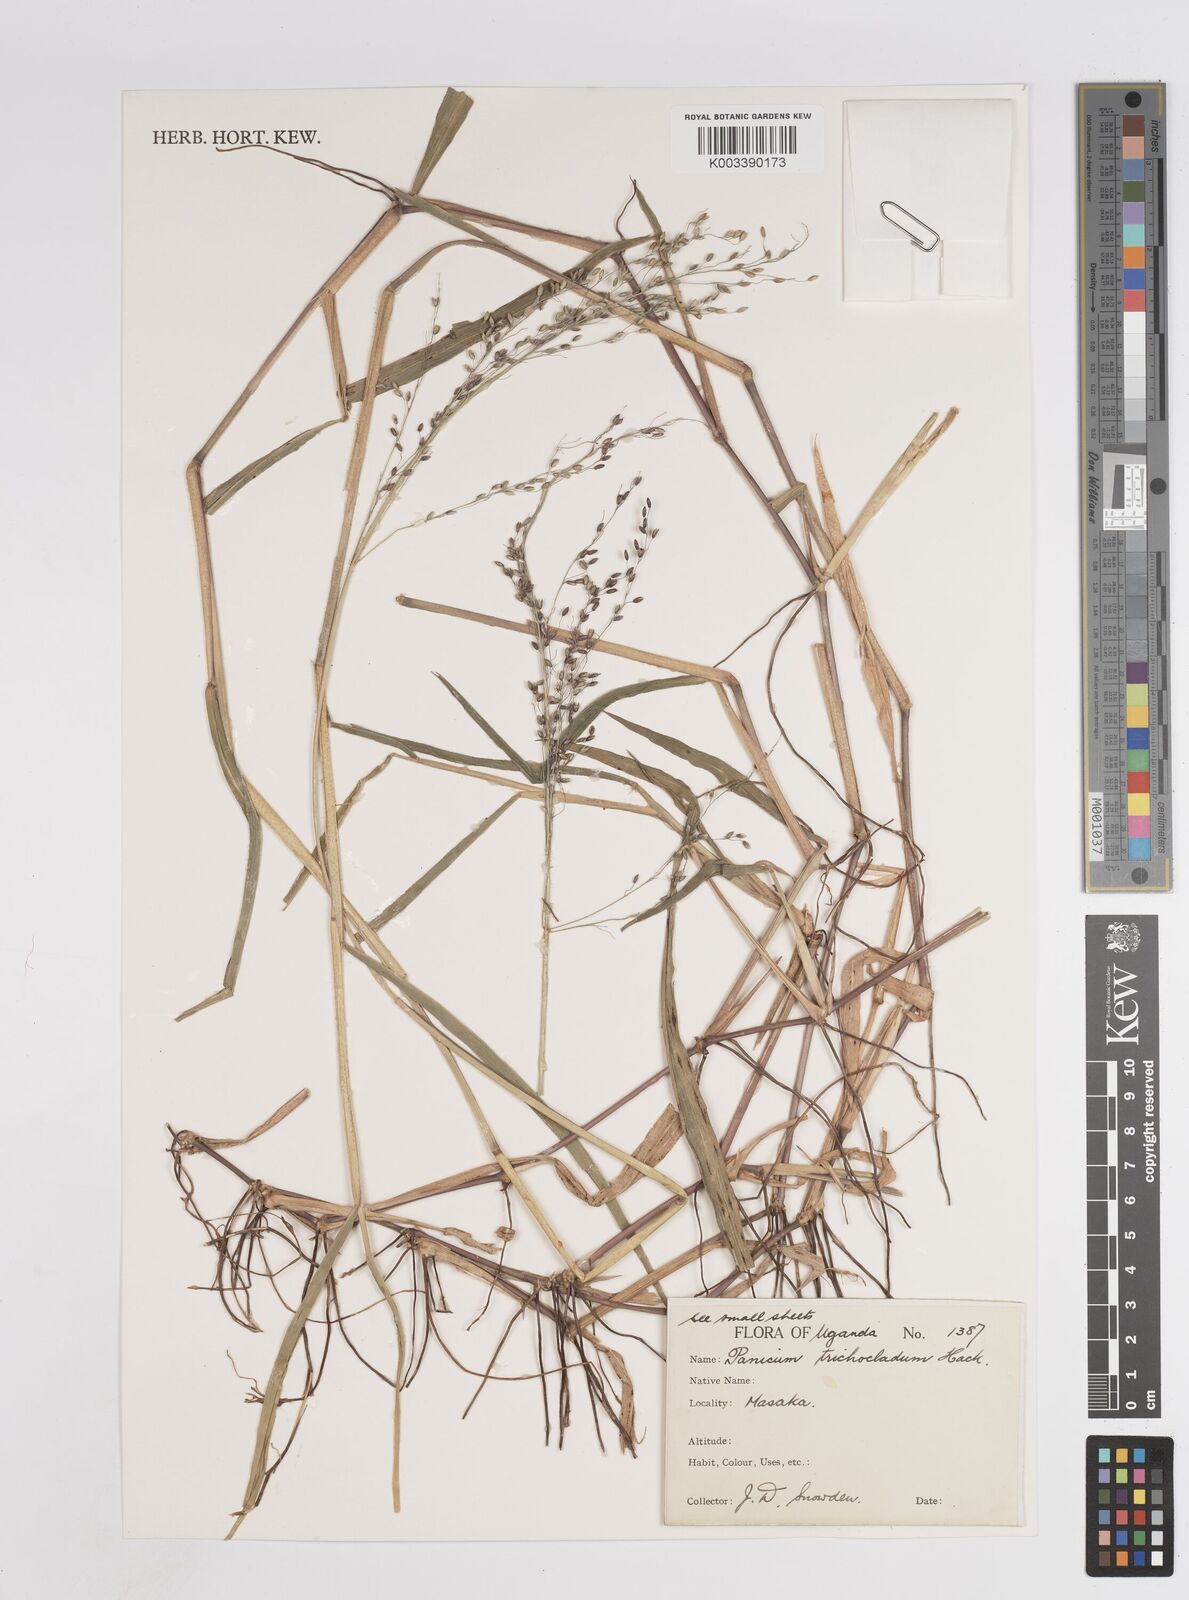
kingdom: Plantae
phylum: Tracheophyta
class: Liliopsida
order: Poales
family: Poaceae
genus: Panicum
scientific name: Panicum trichocladum
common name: Donkey grass
